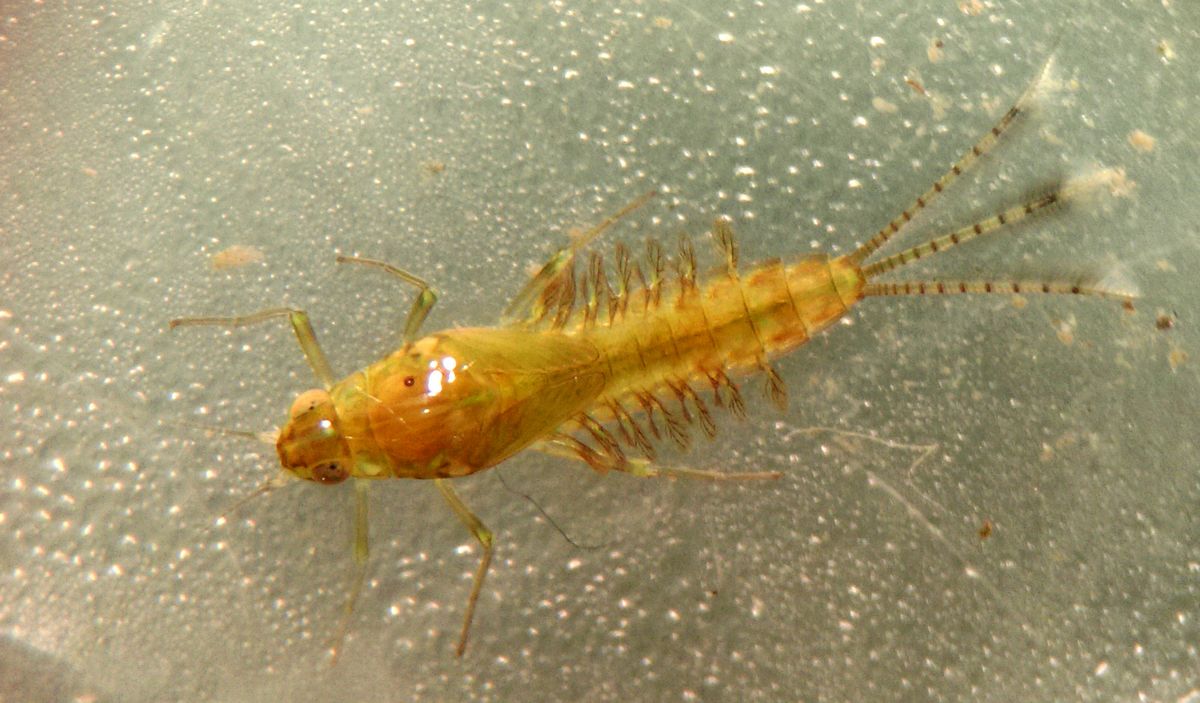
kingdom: Animalia
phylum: Arthropoda
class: Insecta
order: Ephemeroptera
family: Baetidae
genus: Cloeon
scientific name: Cloeon dipterum
